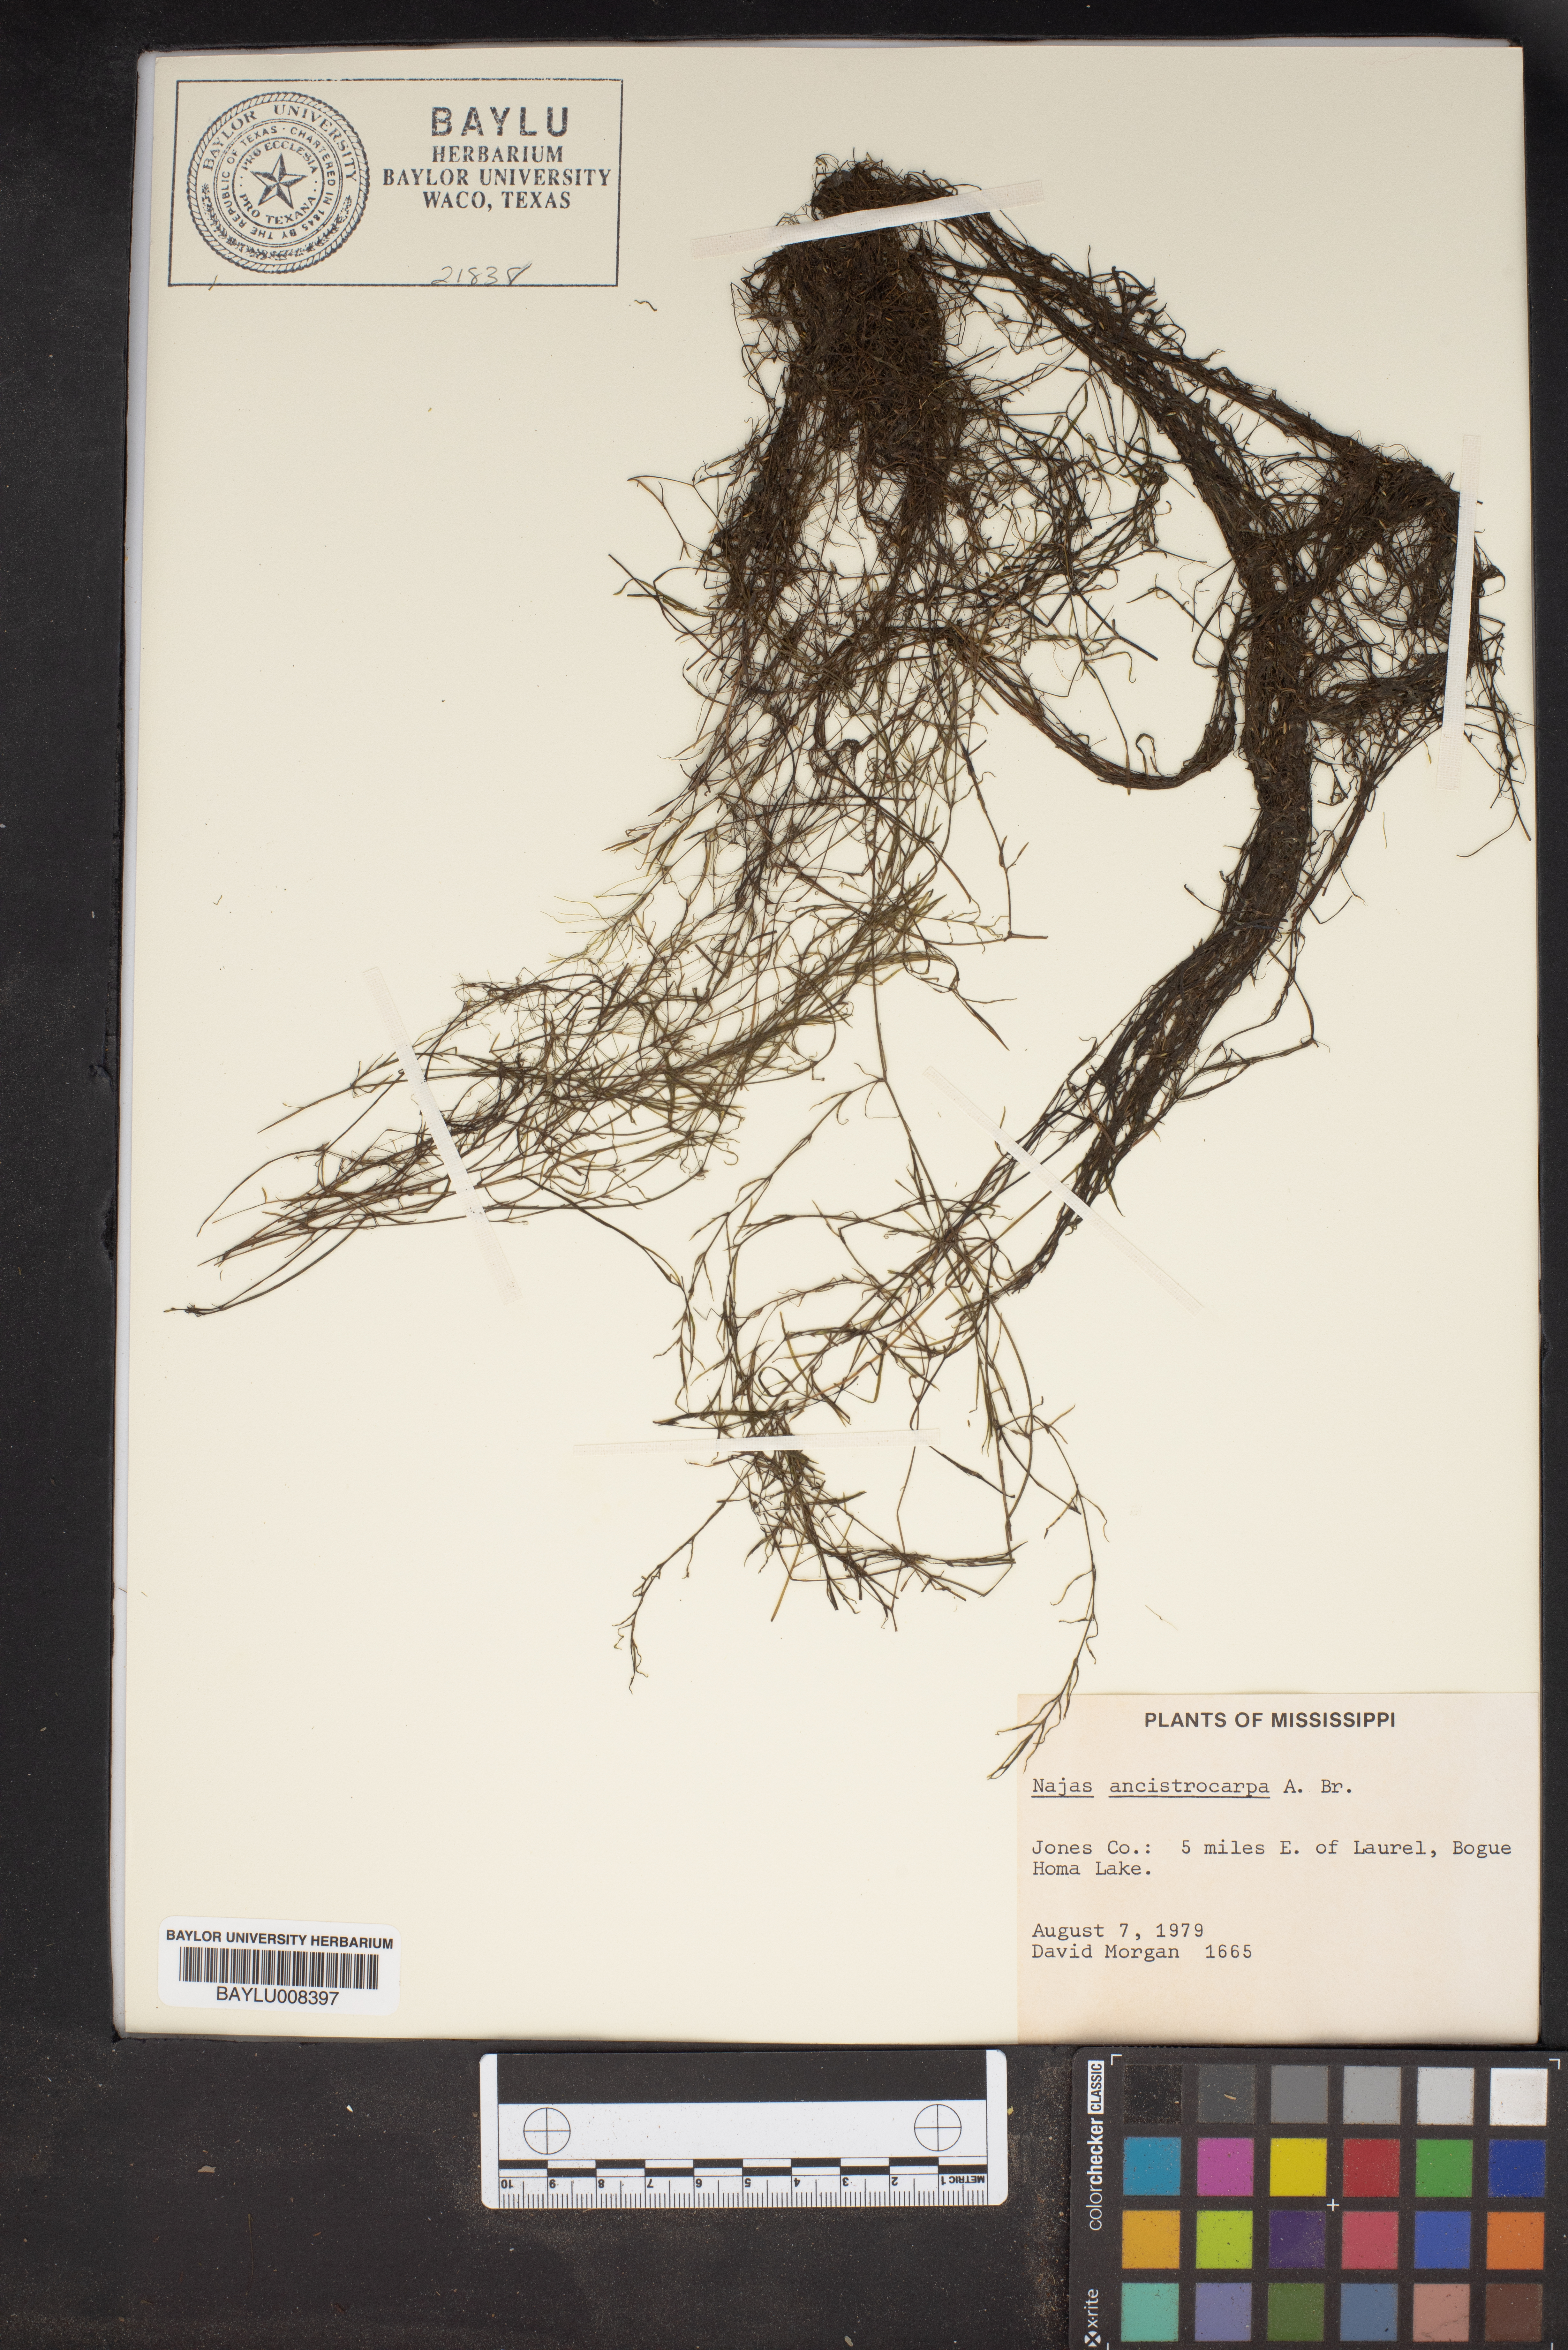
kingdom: Plantae
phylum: Tracheophyta
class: Liliopsida
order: Alismatales
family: Hydrocharitaceae
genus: Najas
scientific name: Najas ancistrocarpa
